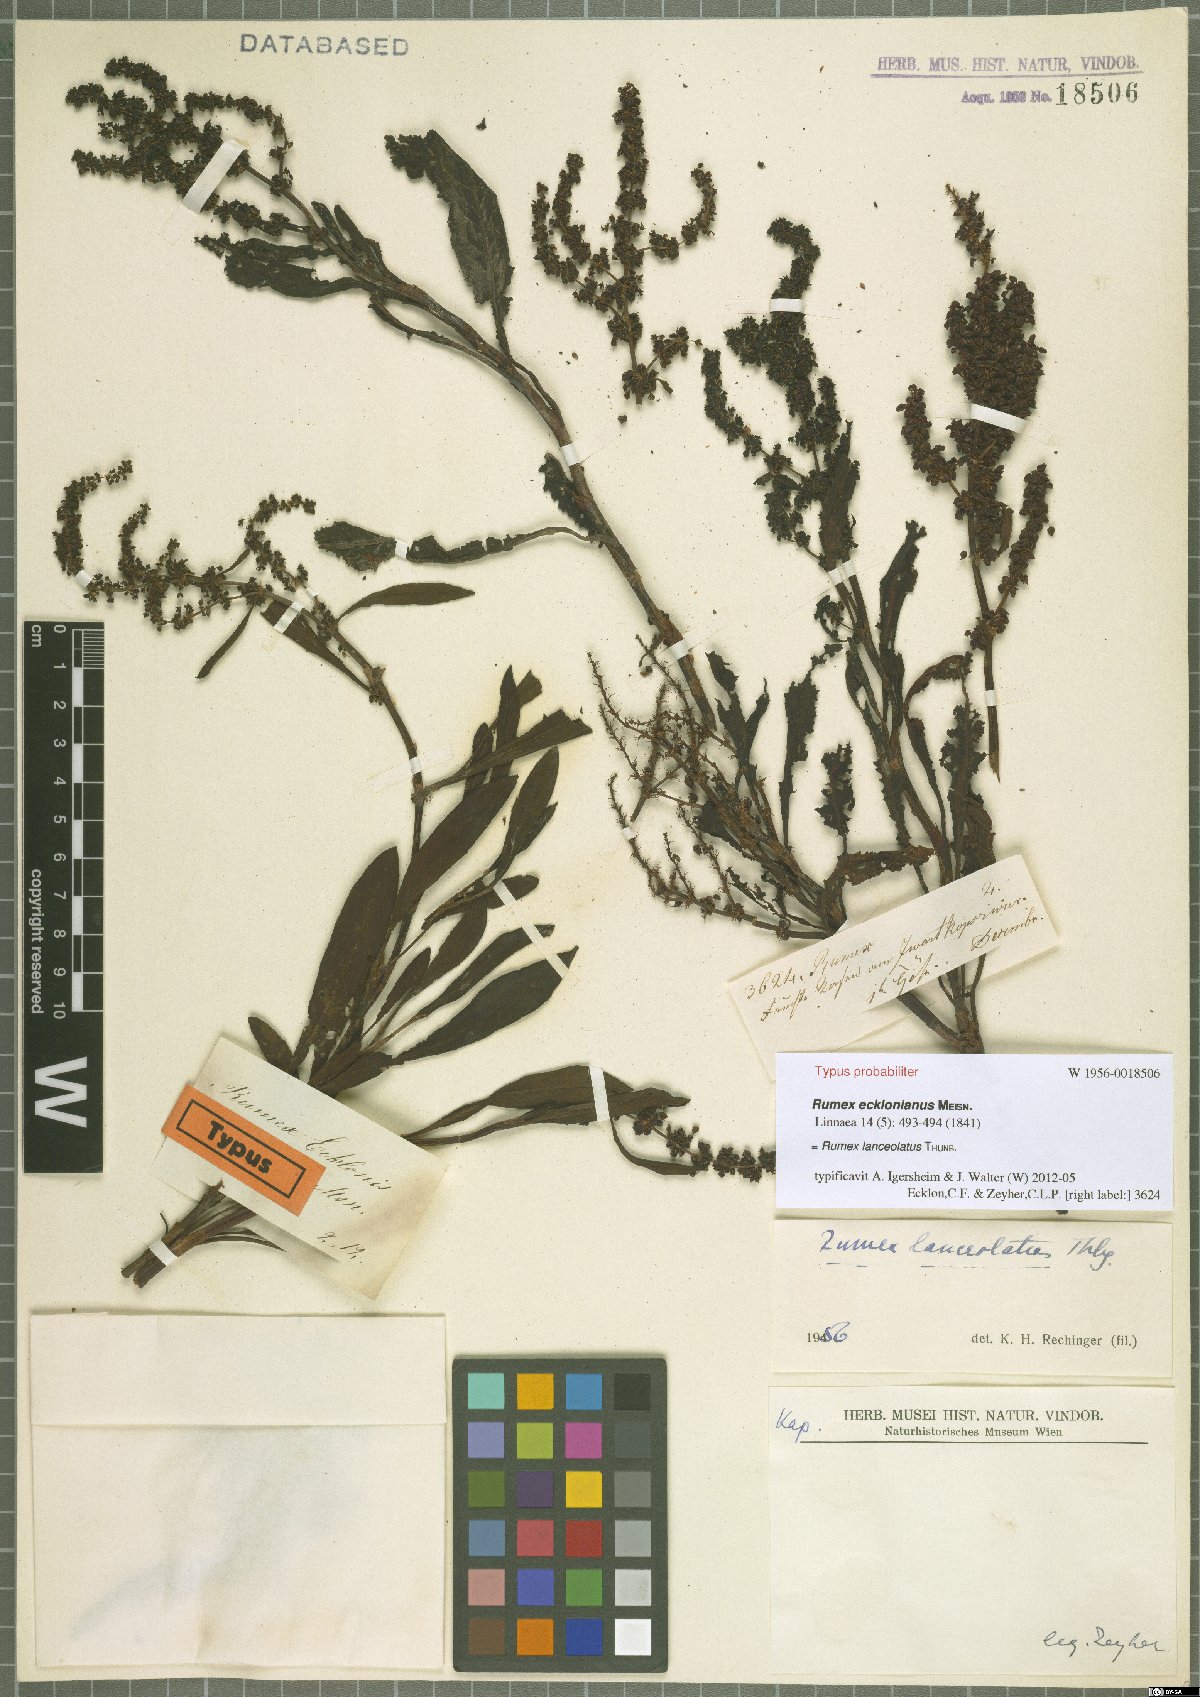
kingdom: Plantae
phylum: Tracheophyta
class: Magnoliopsida
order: Caryophyllales
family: Polygonaceae
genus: Rumex
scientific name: Rumex lanceolatus
